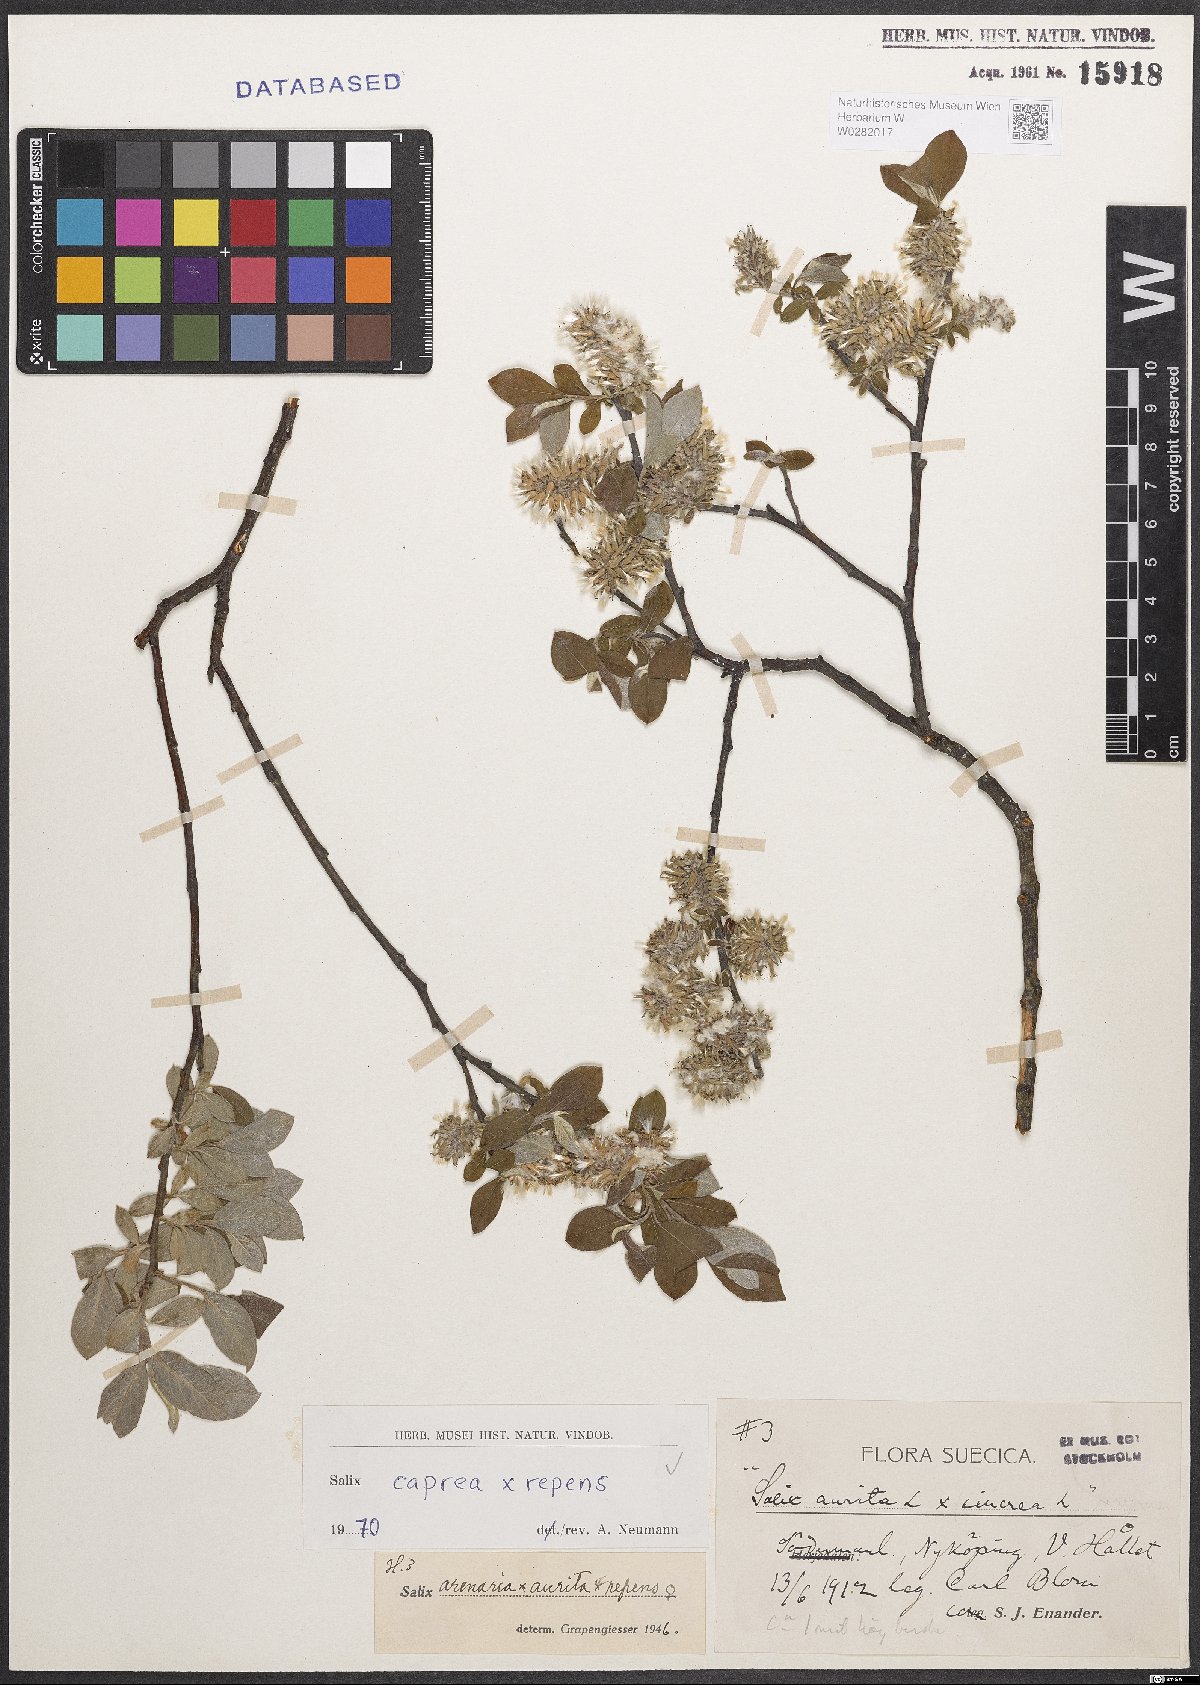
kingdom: Plantae
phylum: Tracheophyta
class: Magnoliopsida
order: Malpighiales
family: Salicaceae
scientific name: Salicaceae
